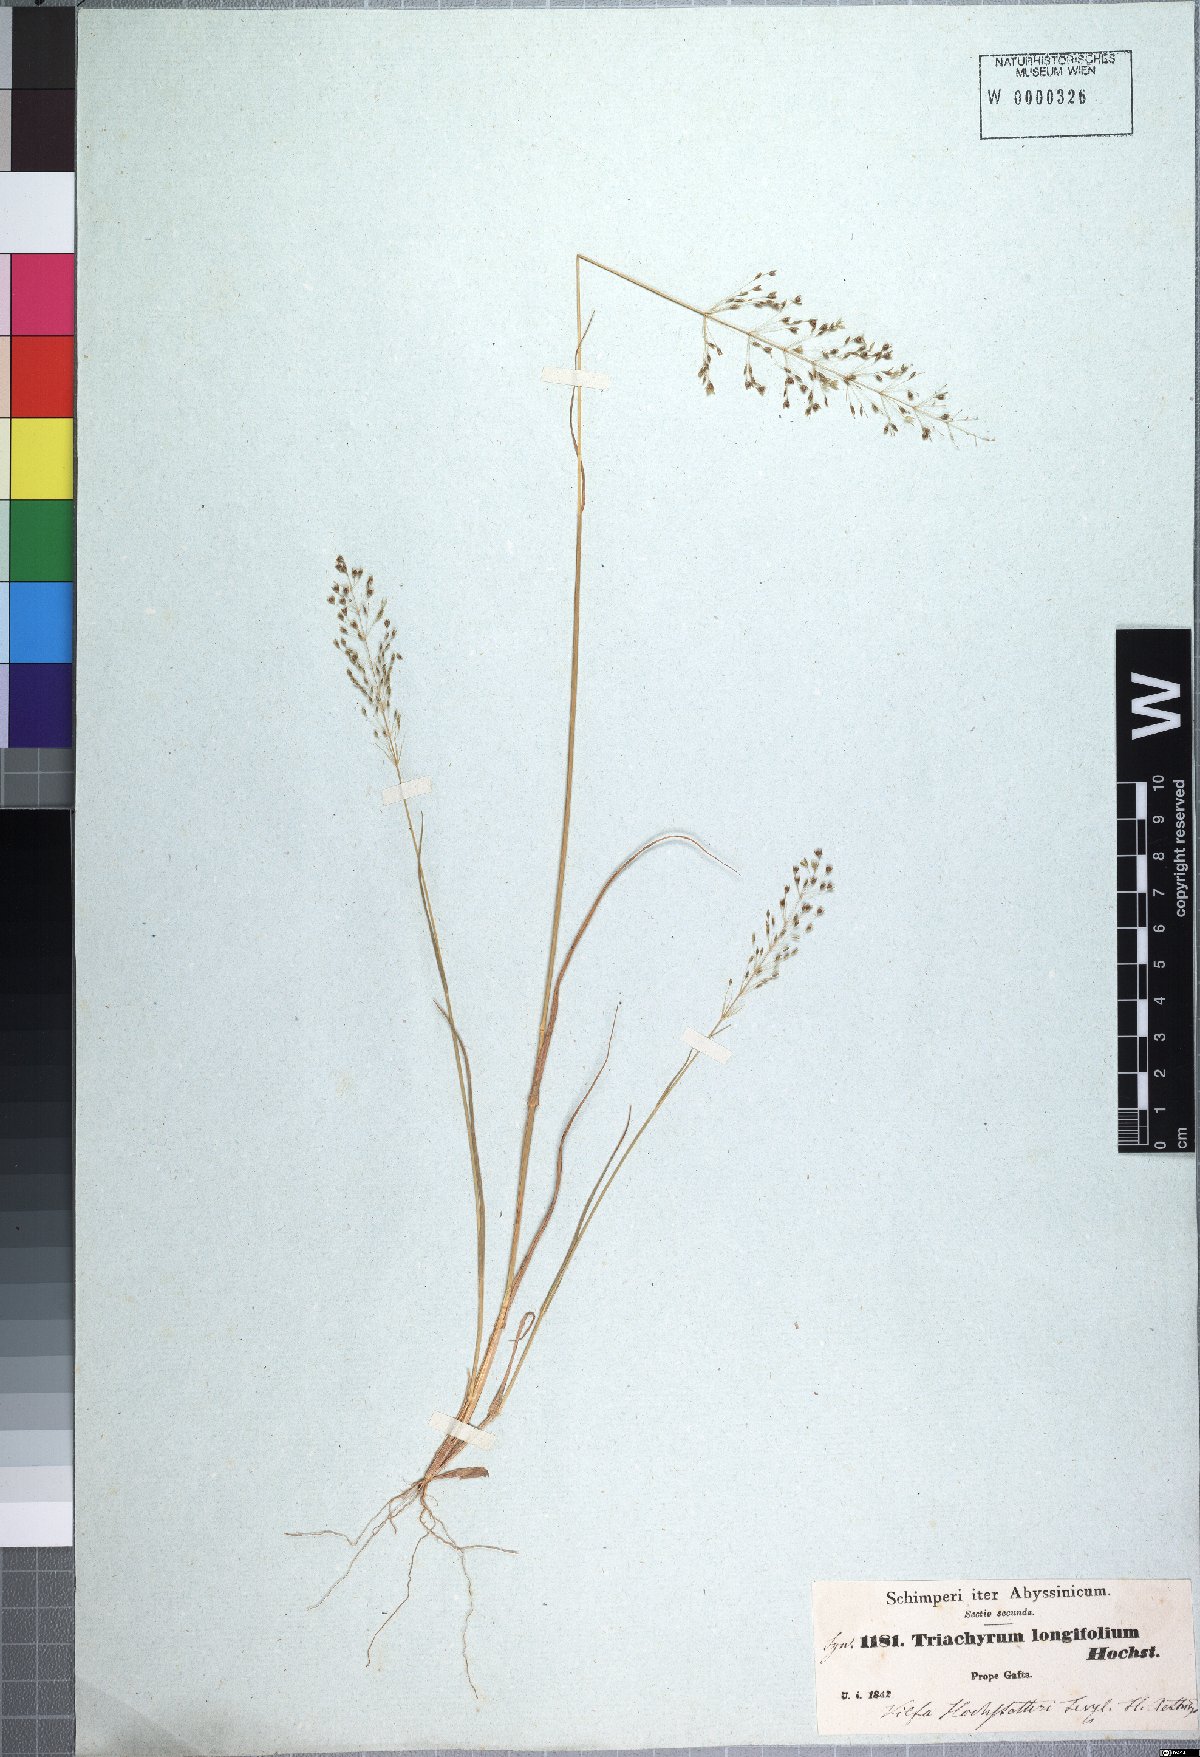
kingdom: Plantae
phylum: Tracheophyta
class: Liliopsida
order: Poales
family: Poaceae
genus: Sporobolus
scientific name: Sporobolus panicoides
